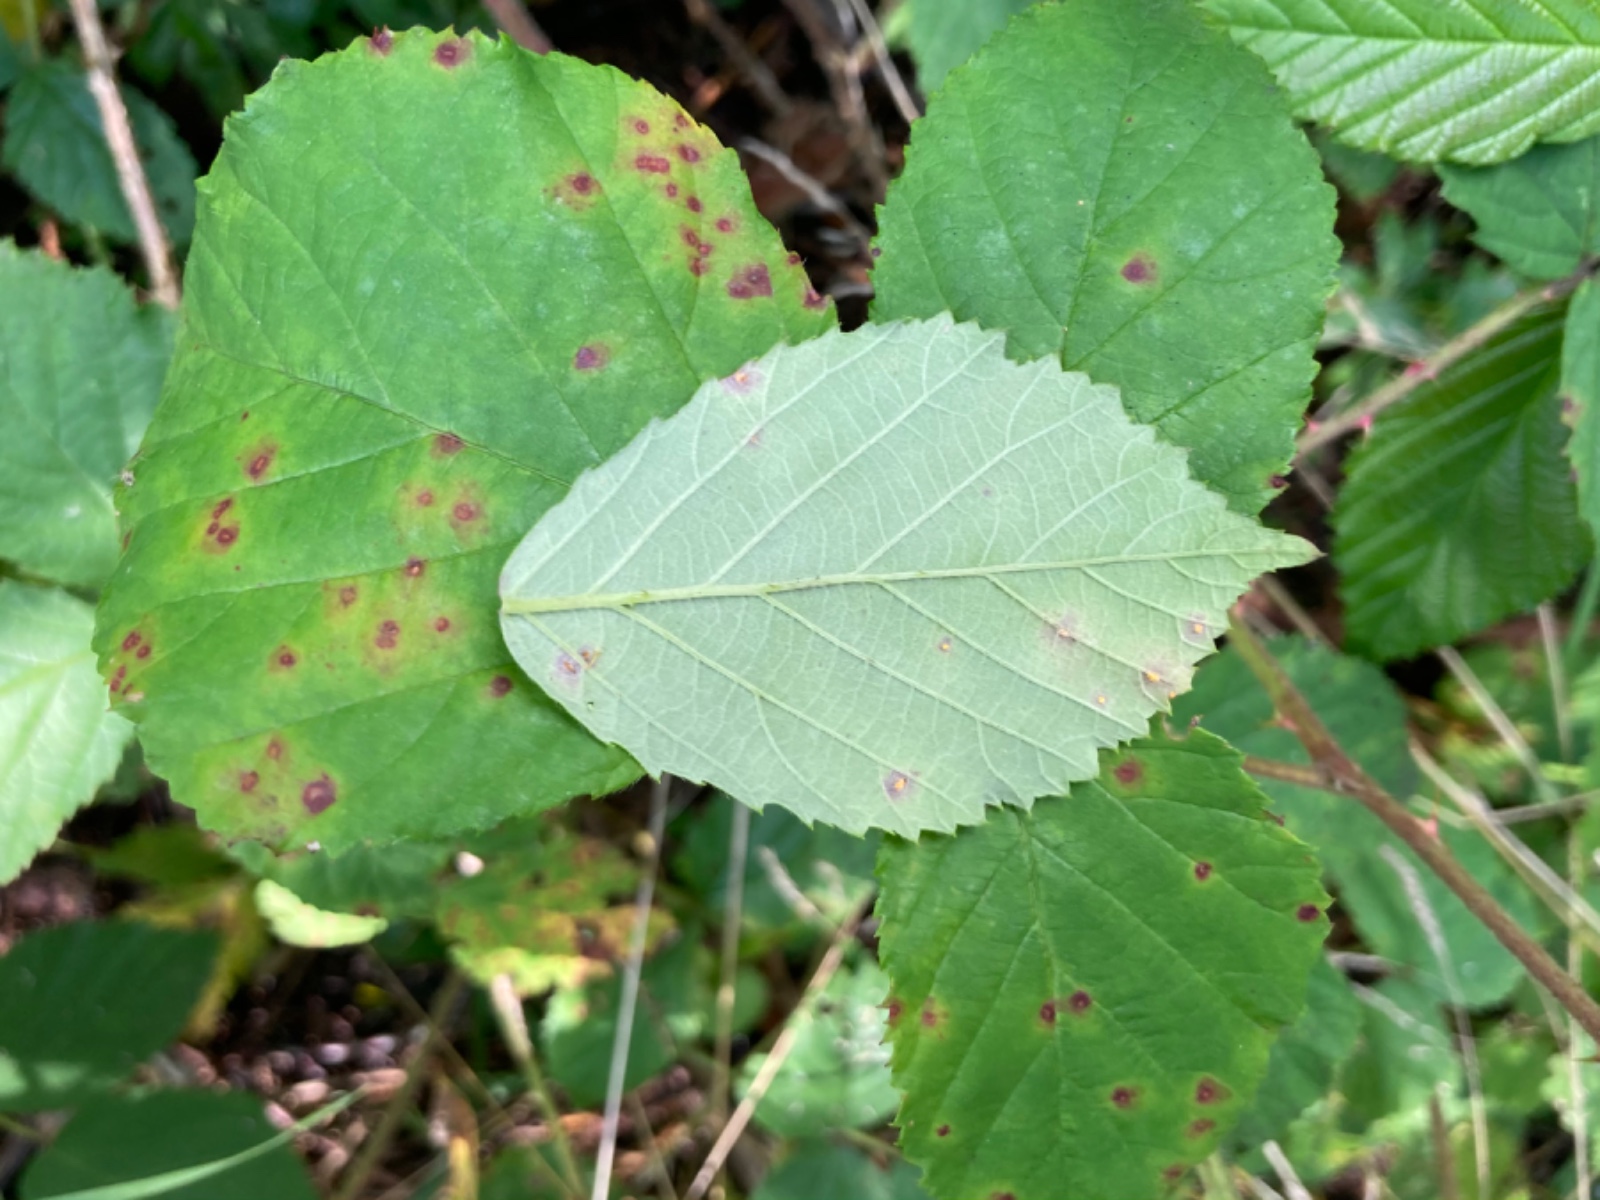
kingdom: Fungi
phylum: Basidiomycota
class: Pucciniomycetes
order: Pucciniales
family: Phragmidiaceae
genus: Phragmidium
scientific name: Phragmidium violaceum
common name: violet flercellerust
